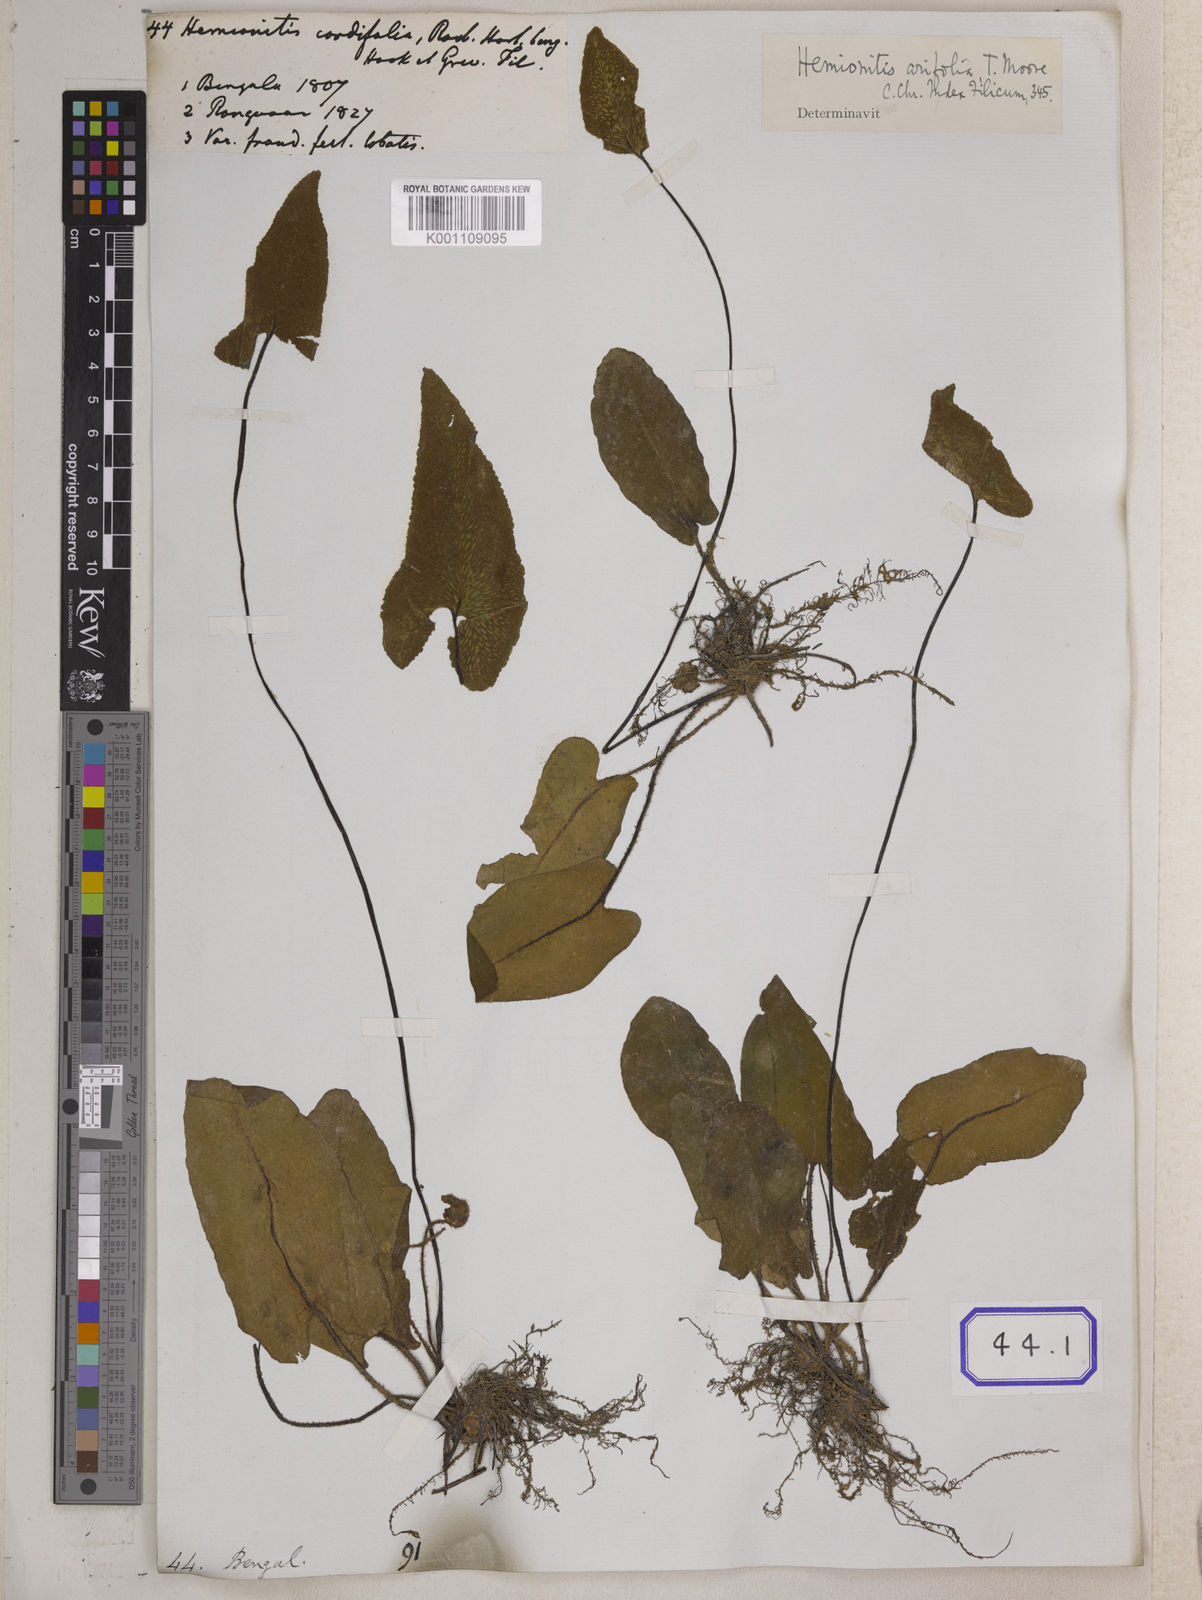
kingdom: Plantae
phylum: Tracheophyta
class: Polypodiopsida
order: Polypodiales
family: Pteridaceae
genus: Hemionitis
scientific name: Hemionitis
